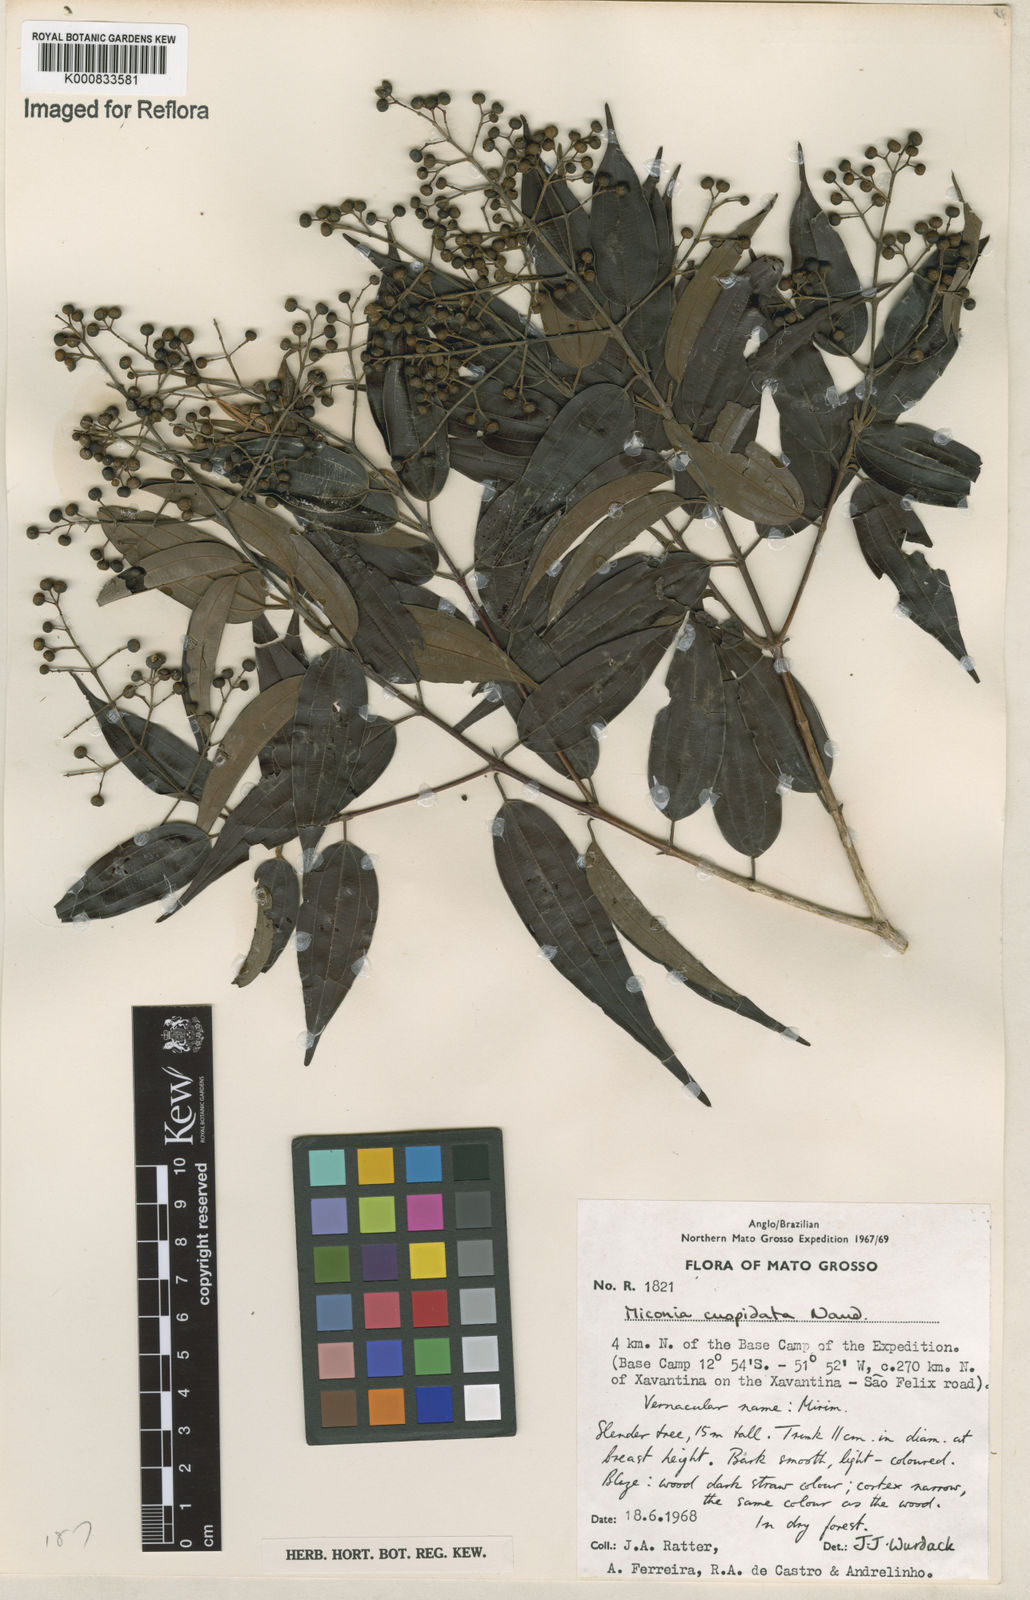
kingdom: Plantae
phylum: Tracheophyta
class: Magnoliopsida
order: Myrtales
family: Melastomataceae
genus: Miconia
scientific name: Miconia cuspidata
